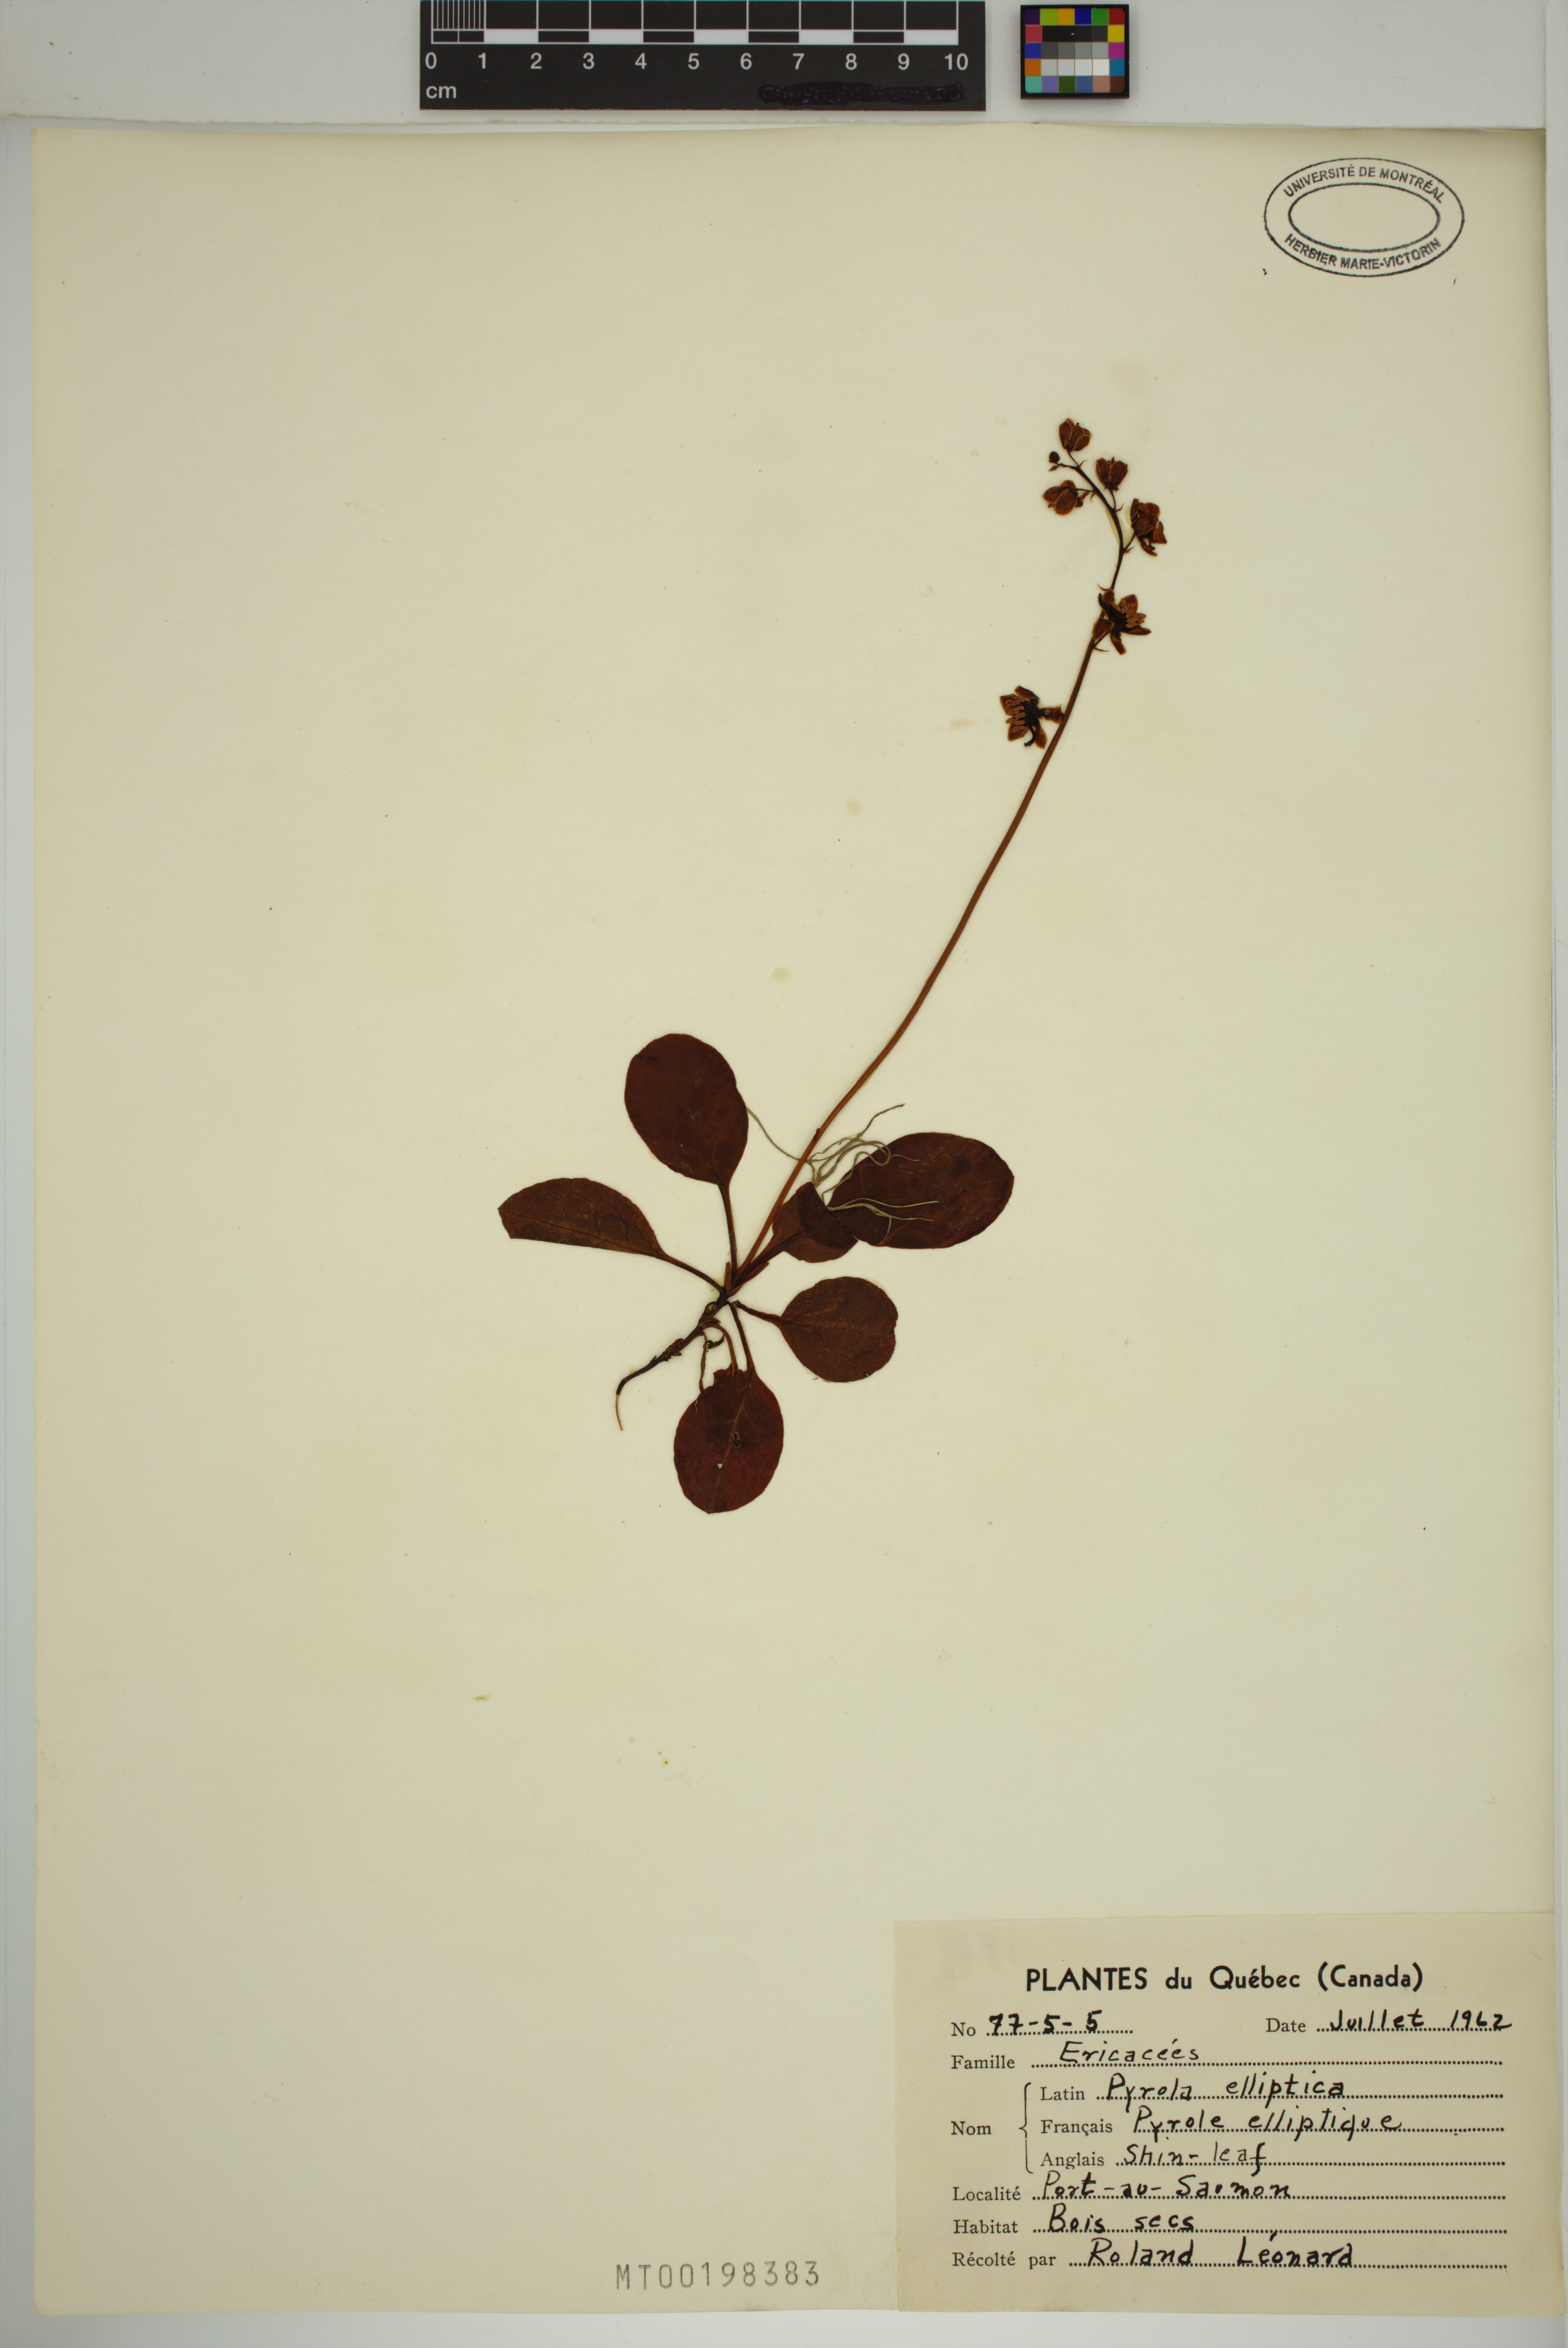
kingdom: Plantae
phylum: Tracheophyta
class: Magnoliopsida
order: Ericales
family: Ericaceae
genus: Pyrola
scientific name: Pyrola elliptica
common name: Shinleaf
